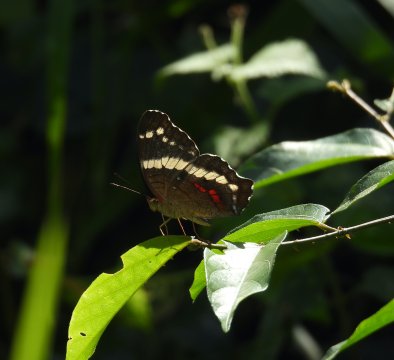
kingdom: Animalia
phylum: Arthropoda
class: Insecta
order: Lepidoptera
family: Nymphalidae
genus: Anartia
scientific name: Anartia fatima
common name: Banded Peacock
